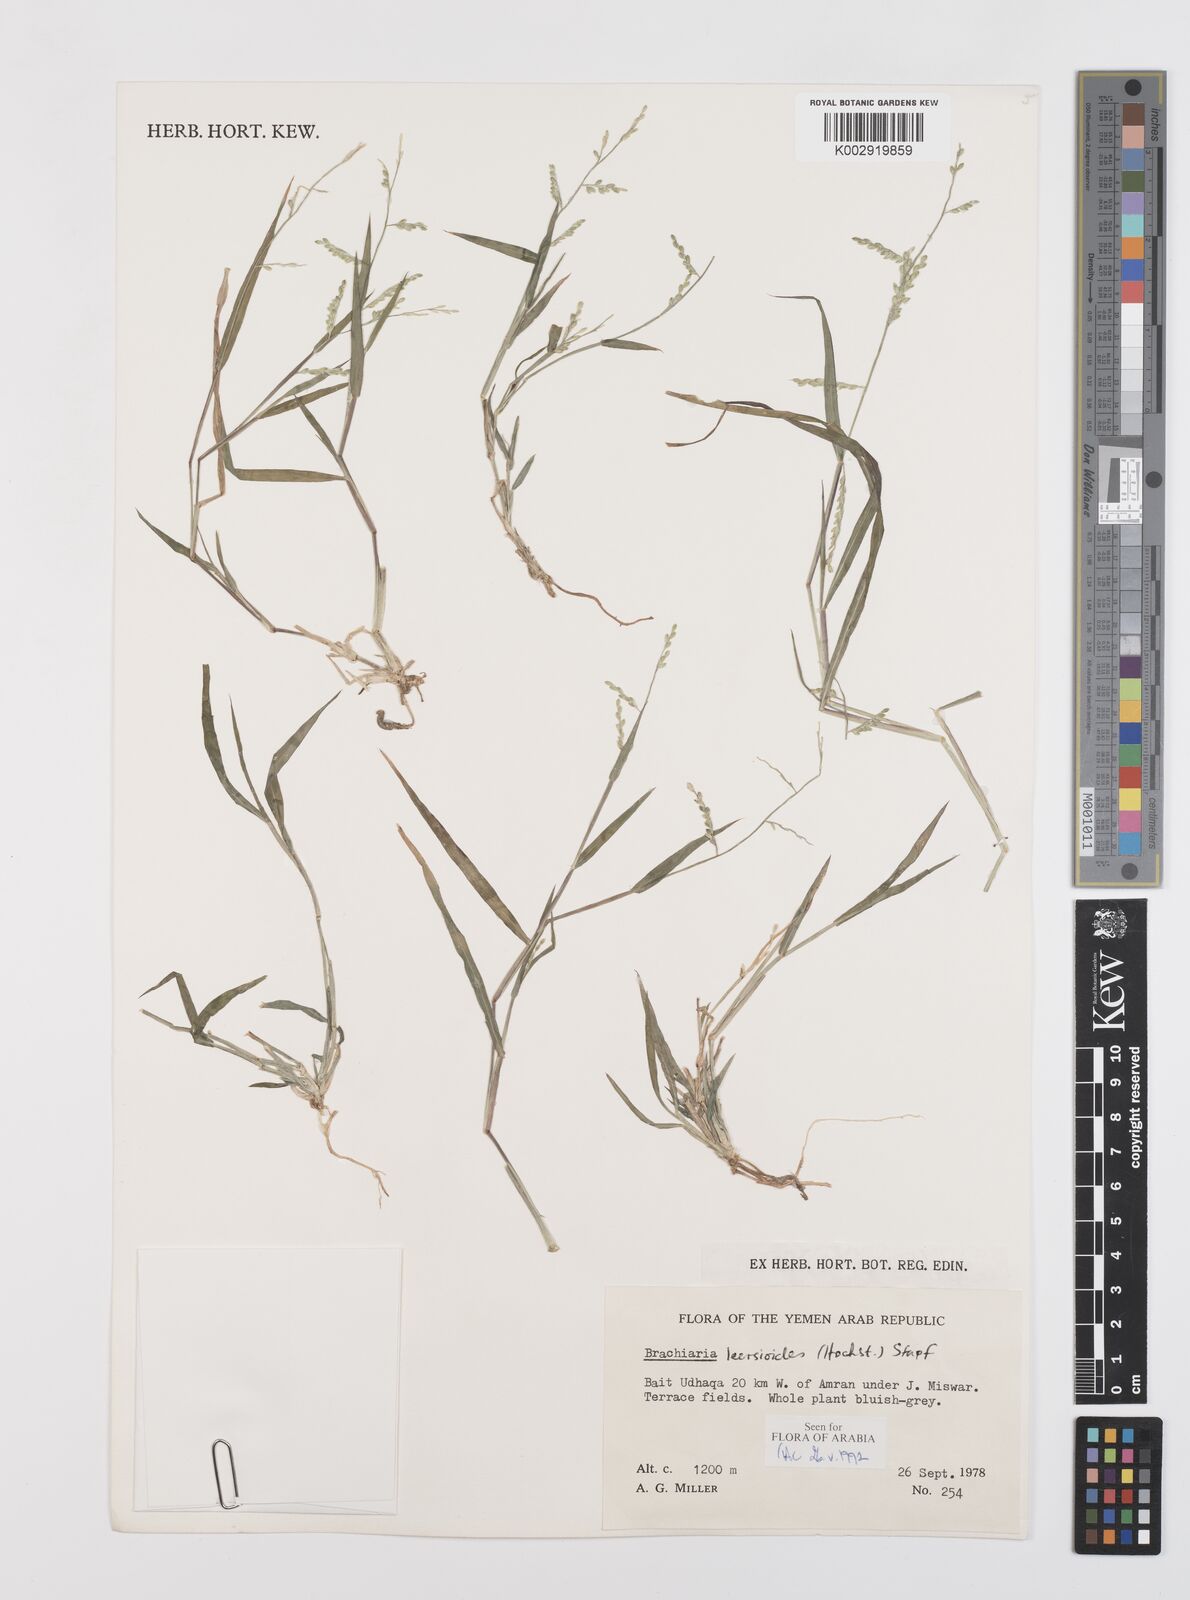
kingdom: Plantae
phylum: Tracheophyta
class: Liliopsida
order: Poales
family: Poaceae
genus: Urochloa
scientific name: Urochloa leersioides
